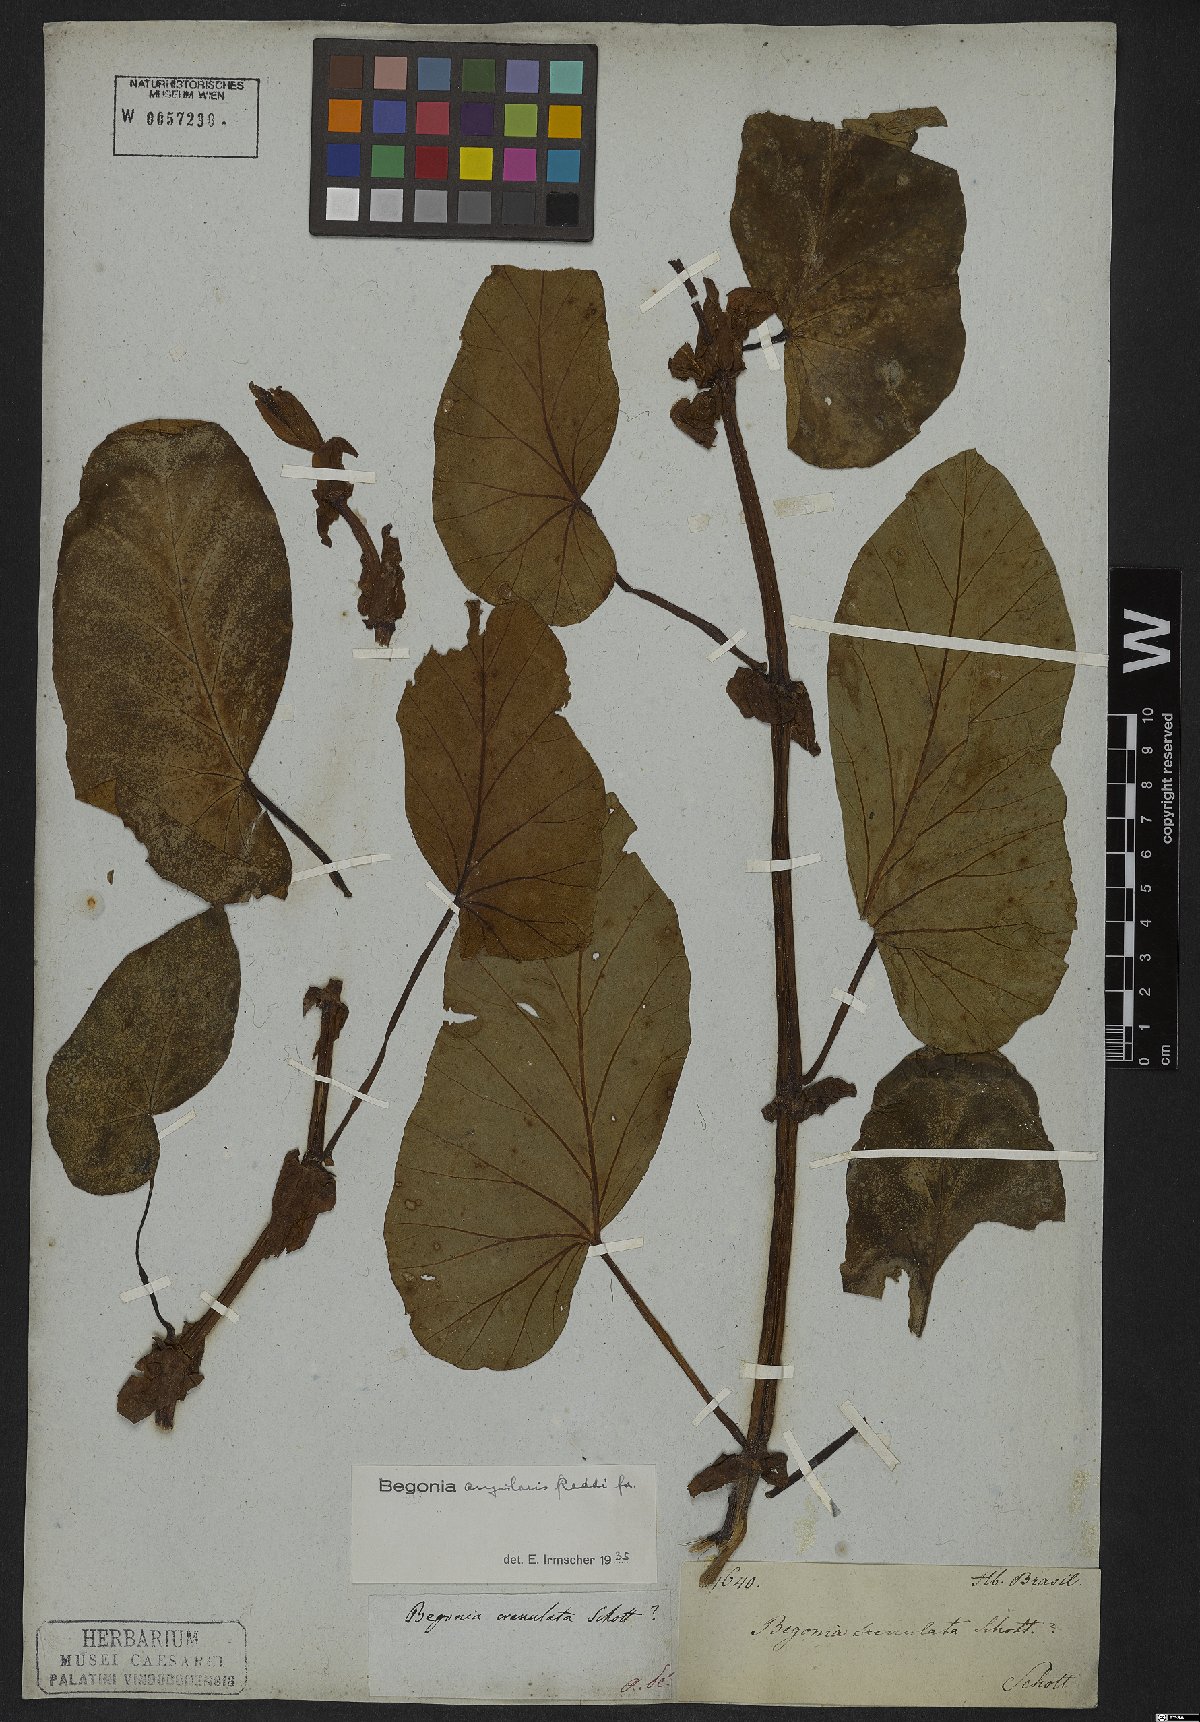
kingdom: Plantae
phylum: Tracheophyta
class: Magnoliopsida
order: Cucurbitales
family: Begoniaceae
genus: Begonia
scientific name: Begonia angularis
